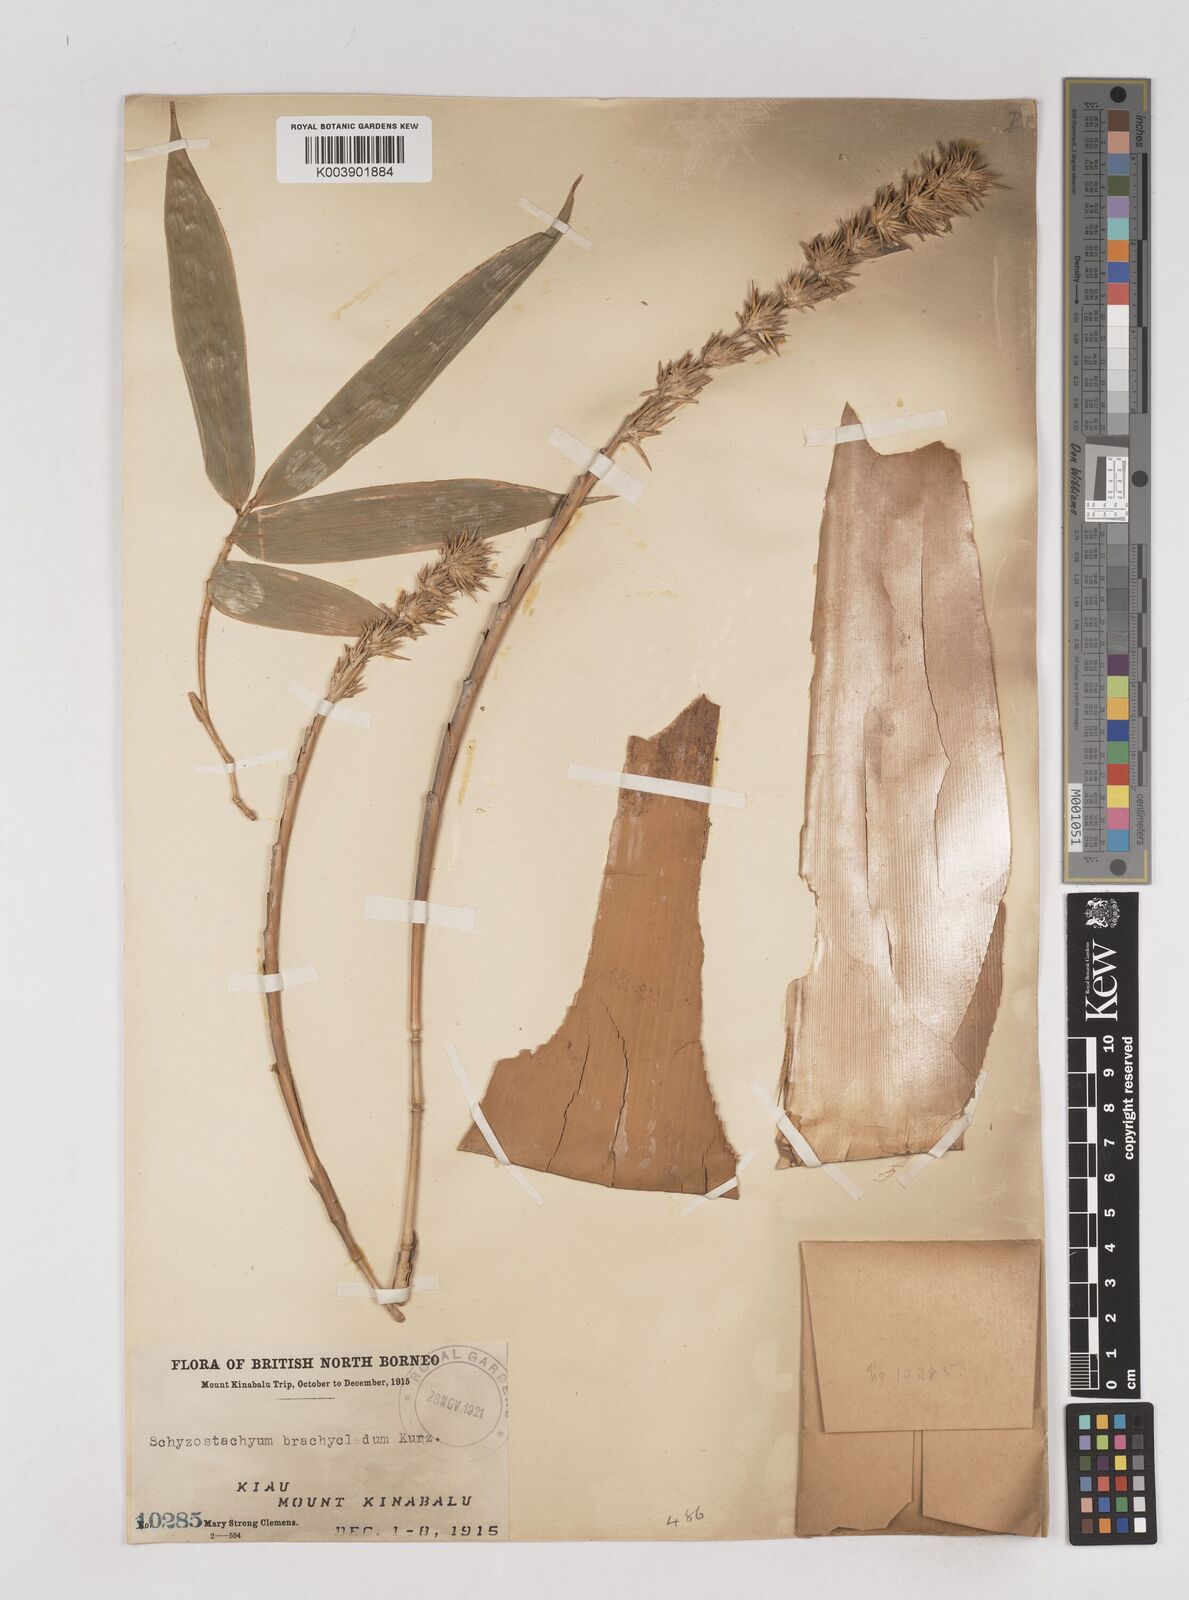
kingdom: Plantae
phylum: Tracheophyta
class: Liliopsida
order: Poales
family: Poaceae
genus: Schizostachyum
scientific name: Schizostachyum brachycladum
